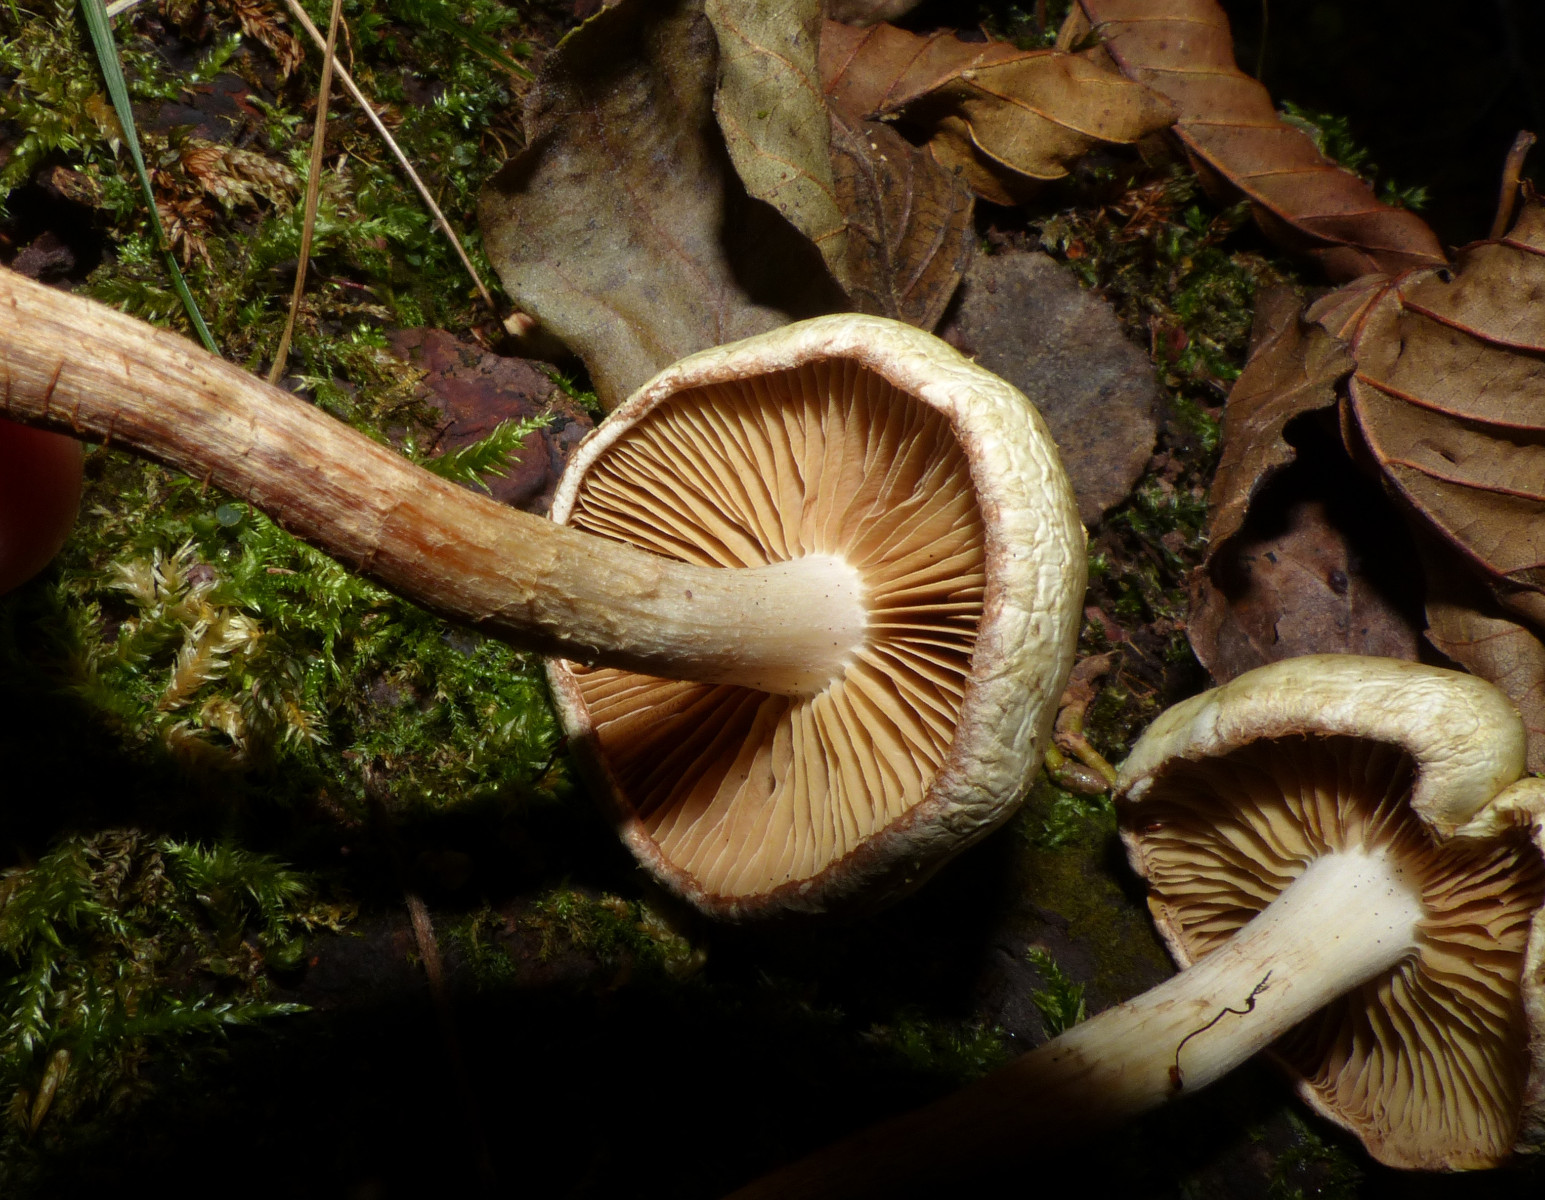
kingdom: Fungi
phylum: Basidiomycota
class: Agaricomycetes
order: Agaricales
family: Strophariaceae
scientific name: Strophariaceae
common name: bredbladfamilien
